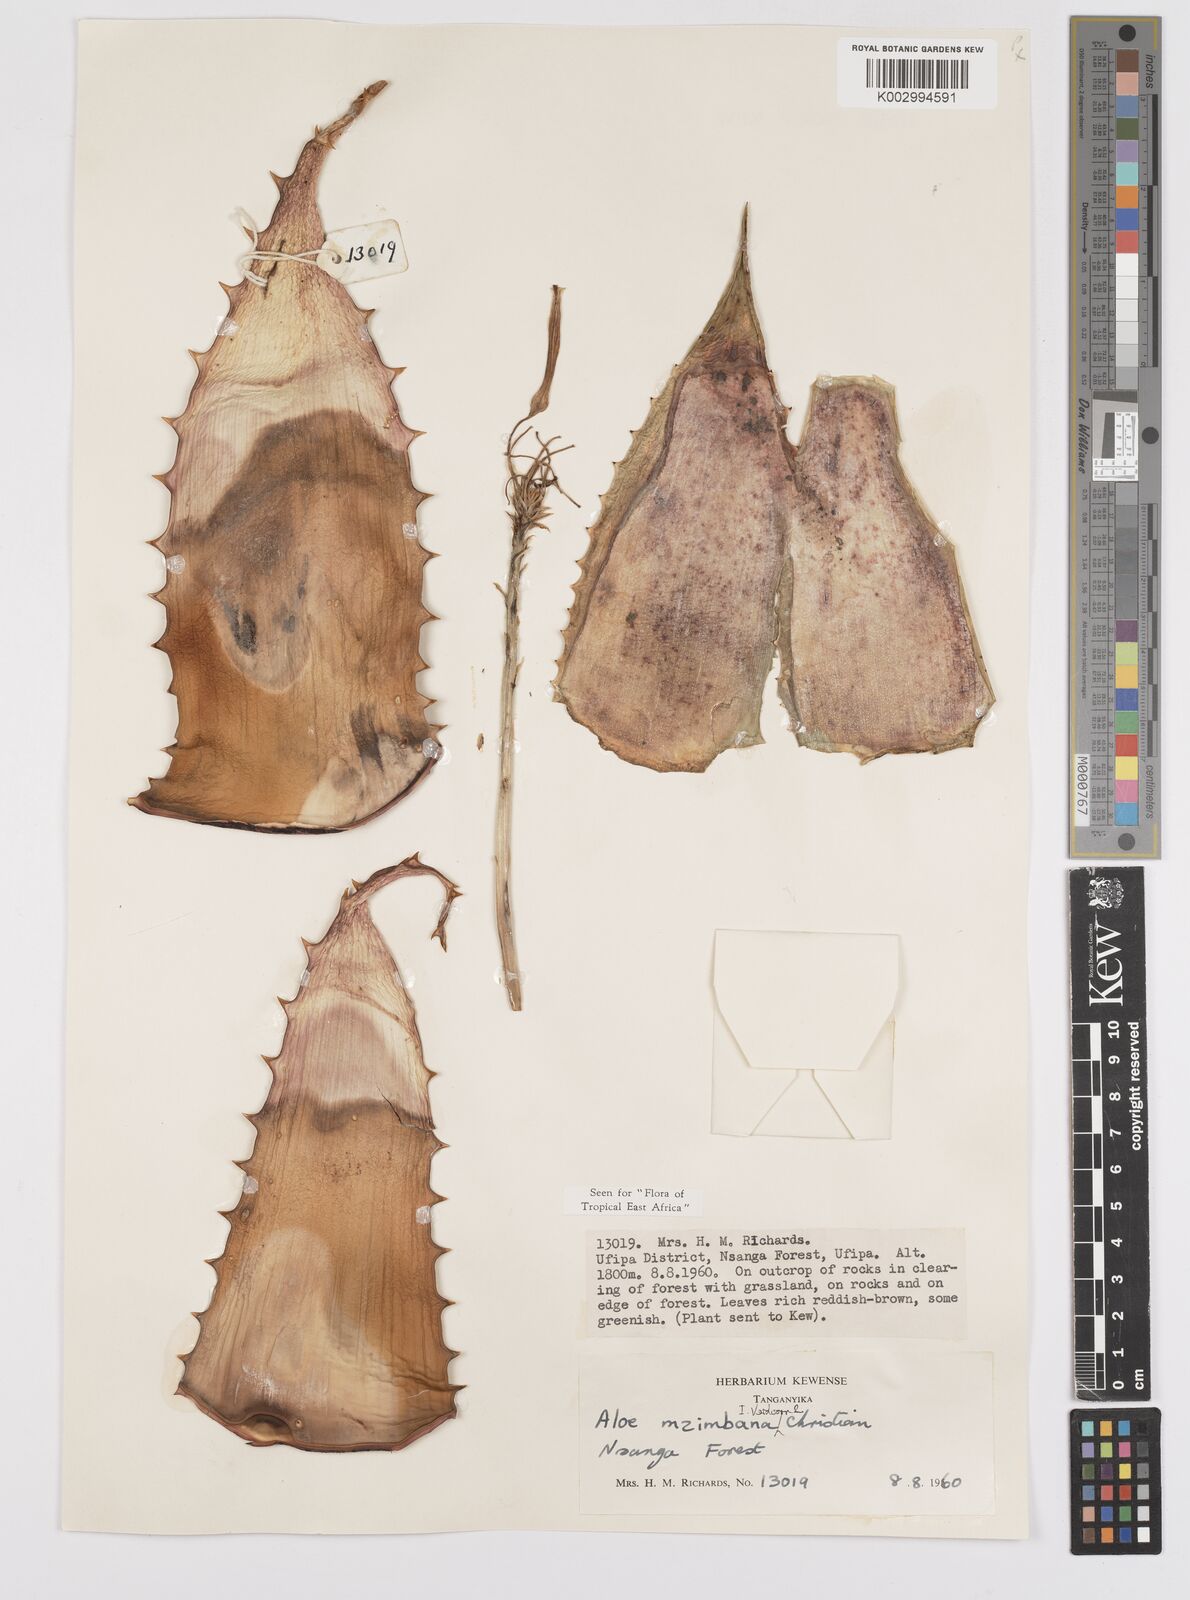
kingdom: Plantae
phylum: Tracheophyta
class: Liliopsida
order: Asparagales
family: Asphodelaceae
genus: Aloe
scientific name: Aloe mzimbana
